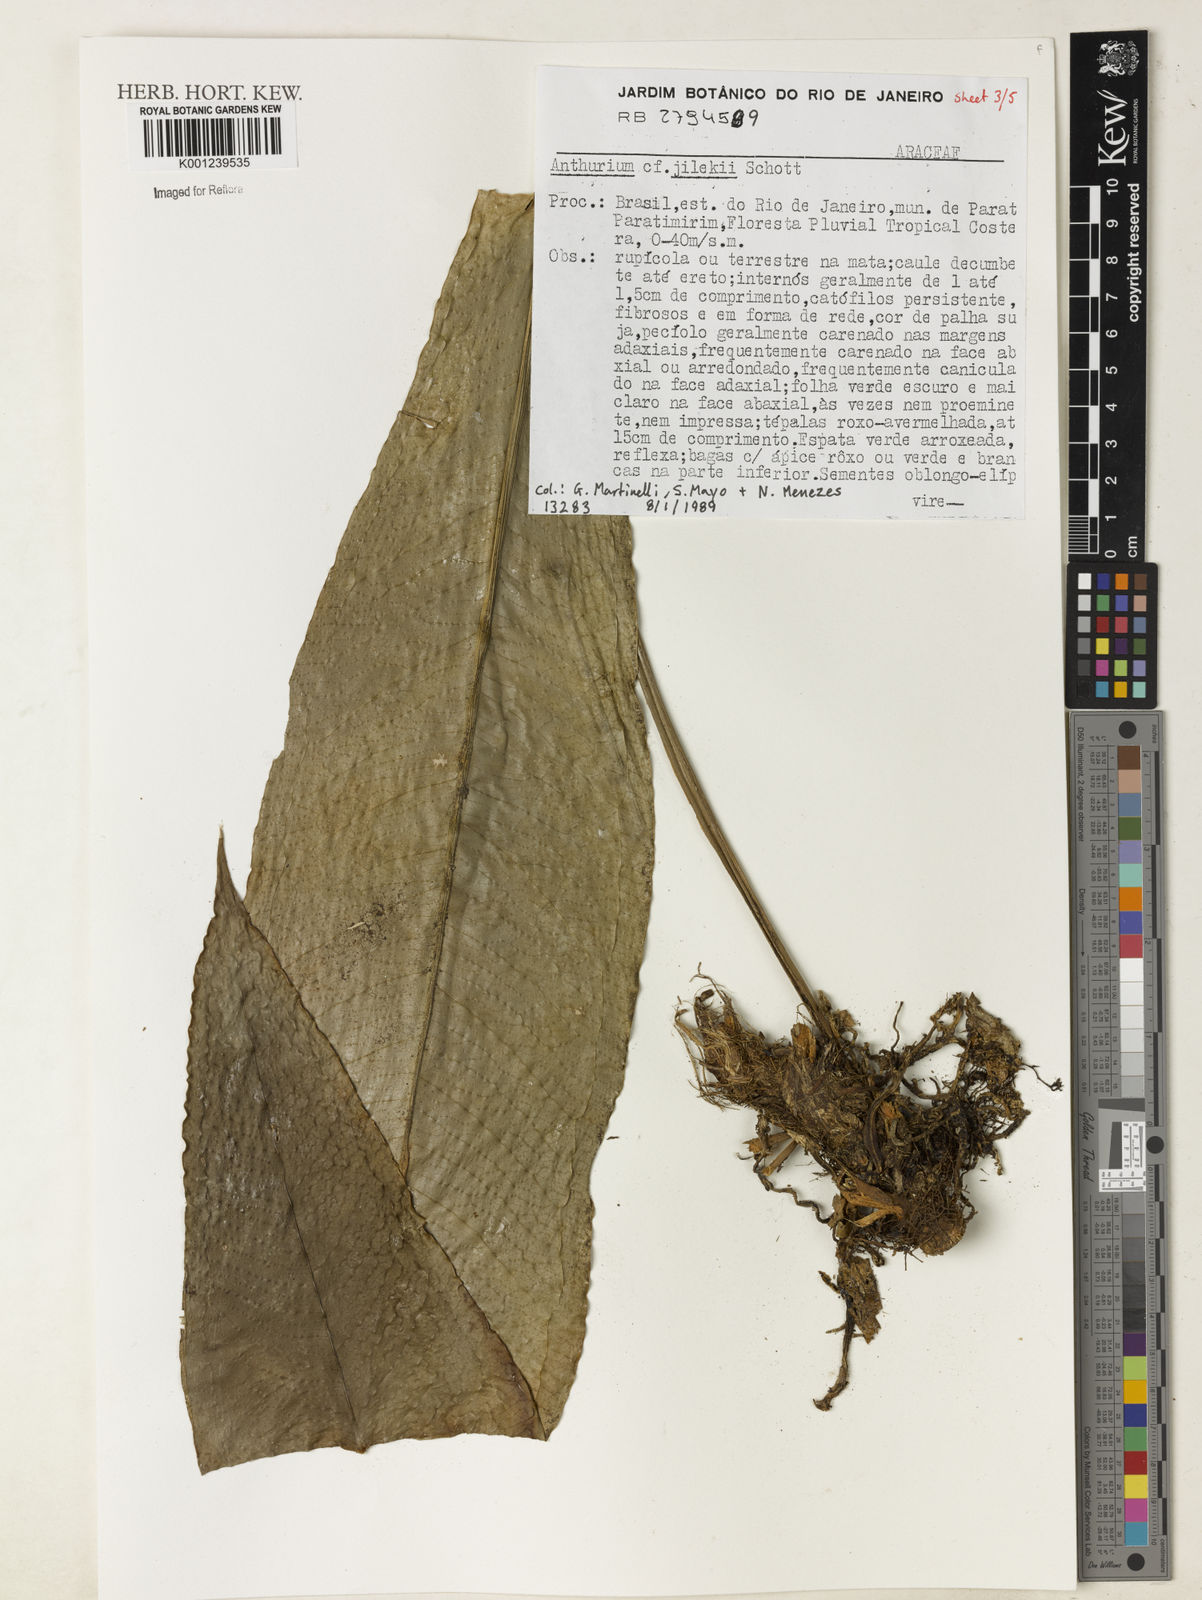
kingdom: Plantae
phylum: Tracheophyta
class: Liliopsida
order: Alismatales
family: Araceae
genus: Anthurium
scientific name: Anthurium jilekii
